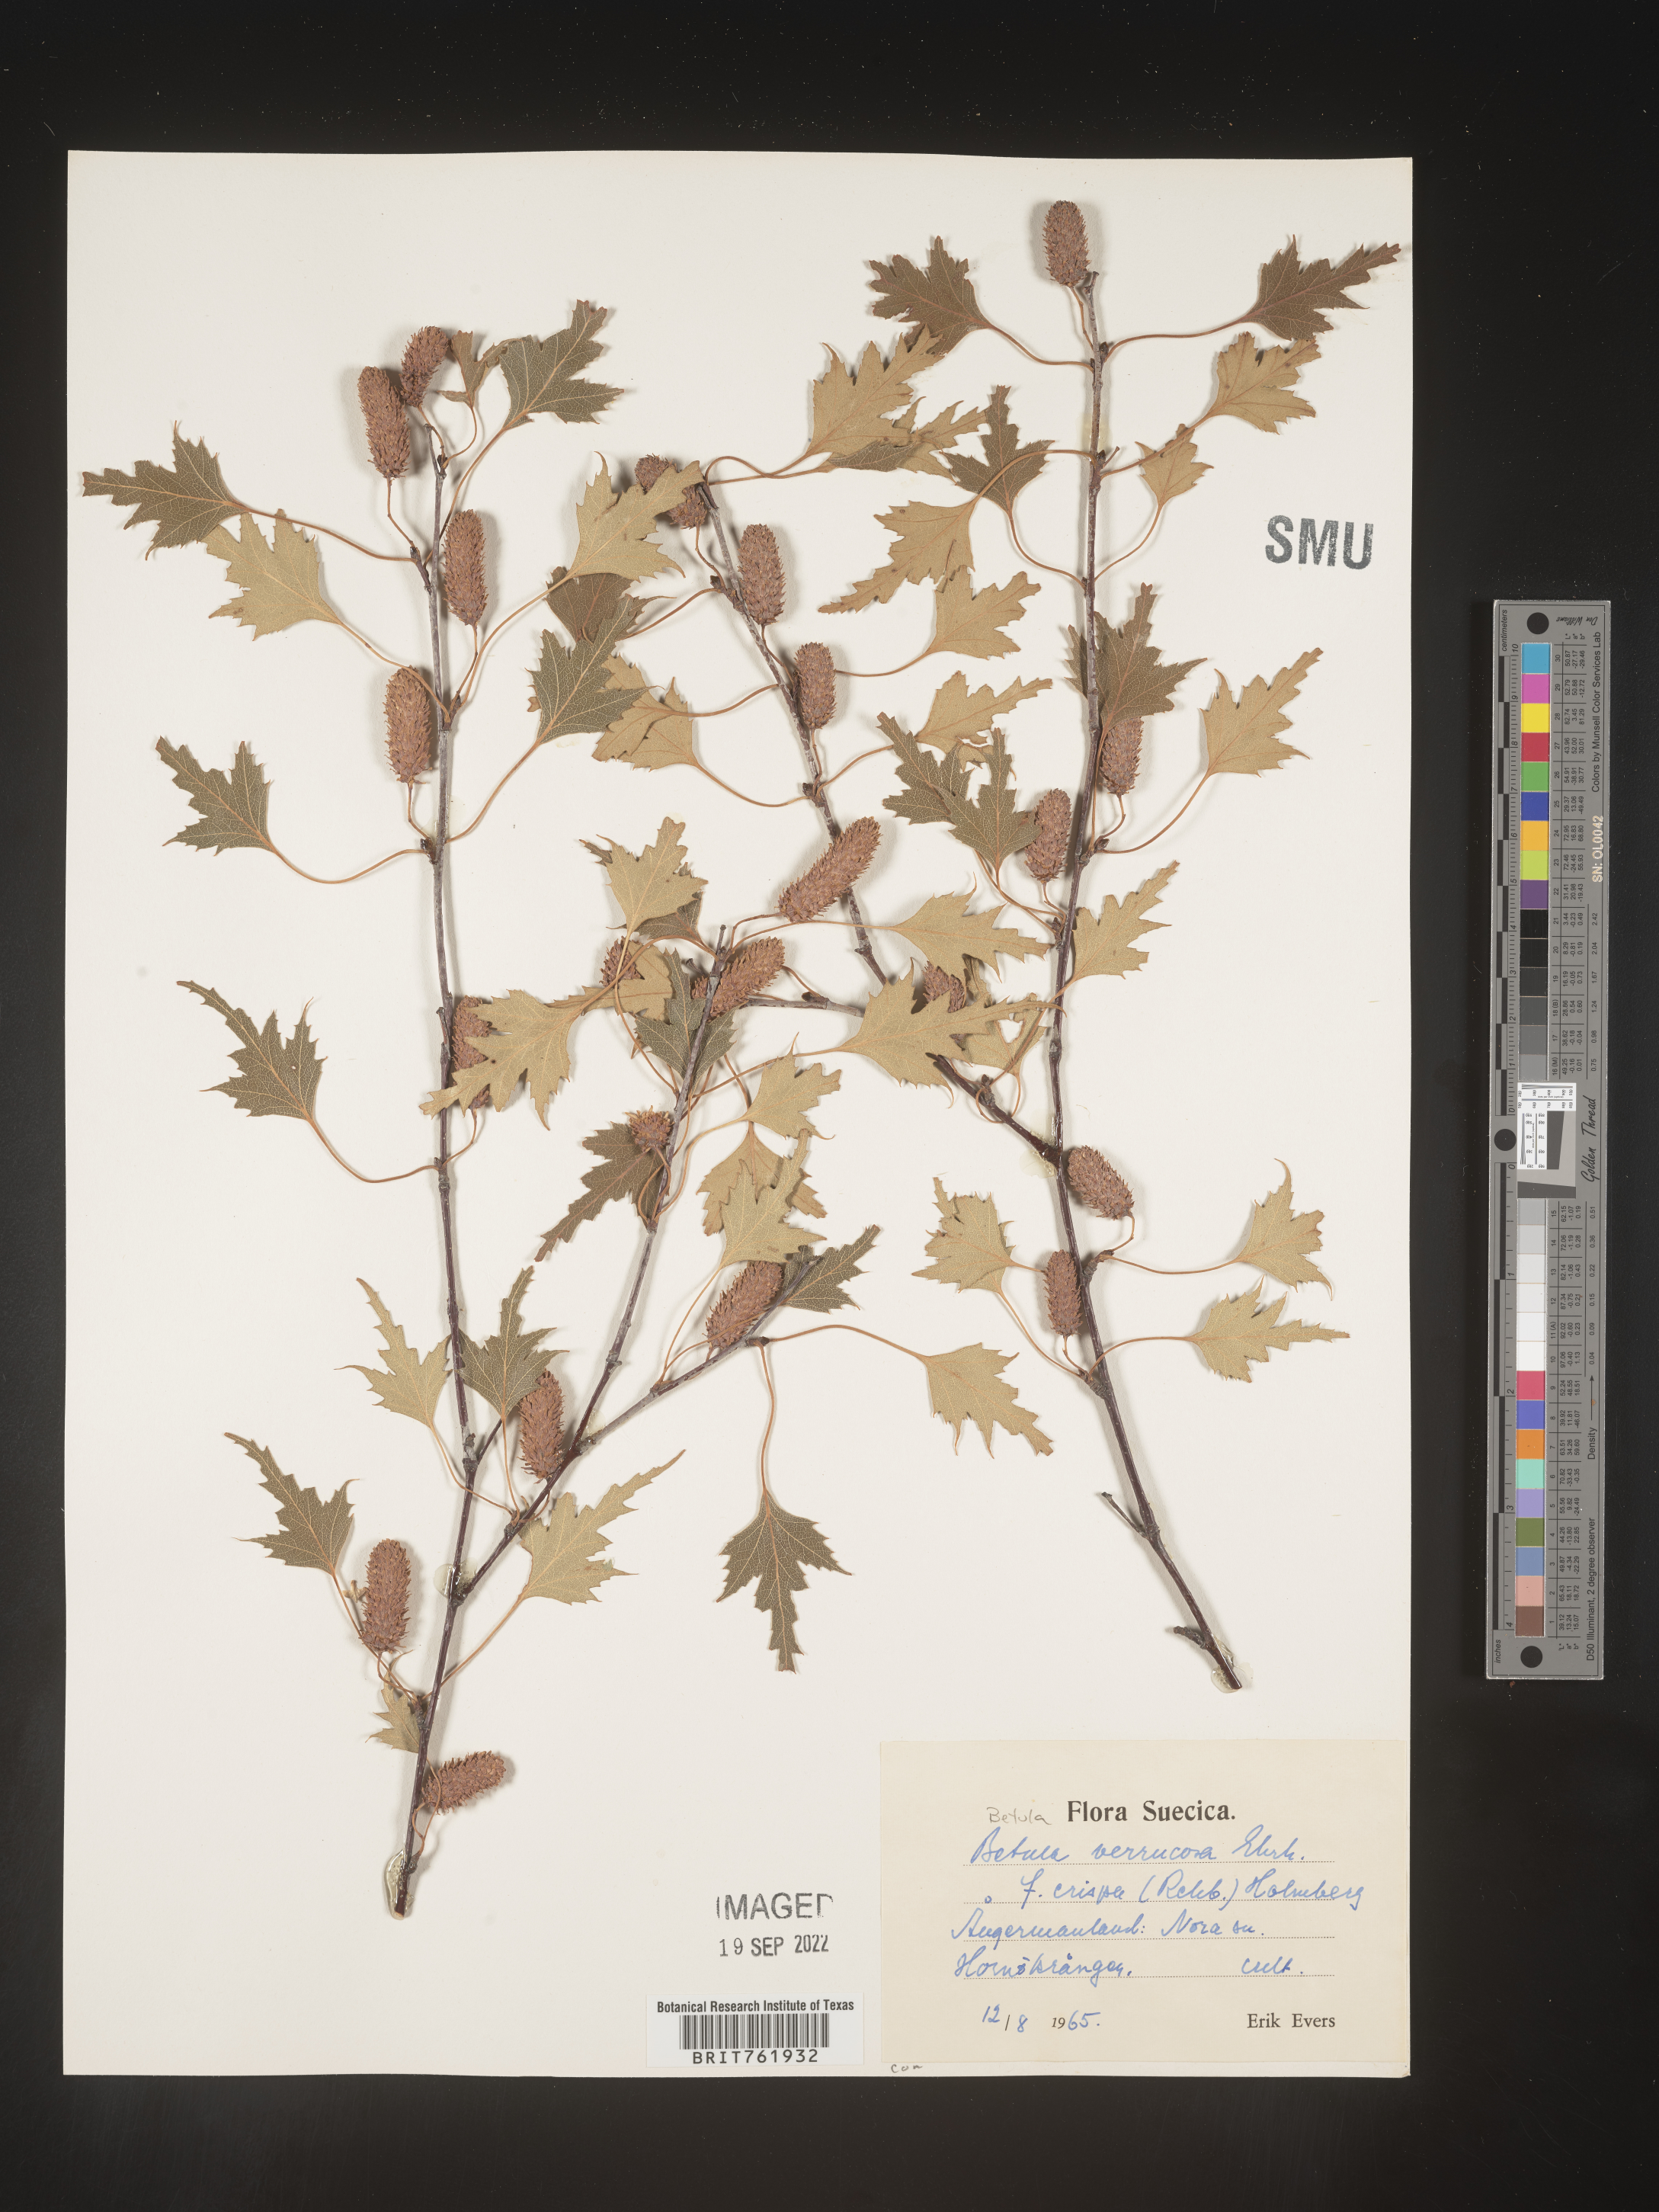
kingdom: Plantae
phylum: Tracheophyta
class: Magnoliopsida
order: Fagales
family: Betulaceae
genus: Betula
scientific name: Betula
